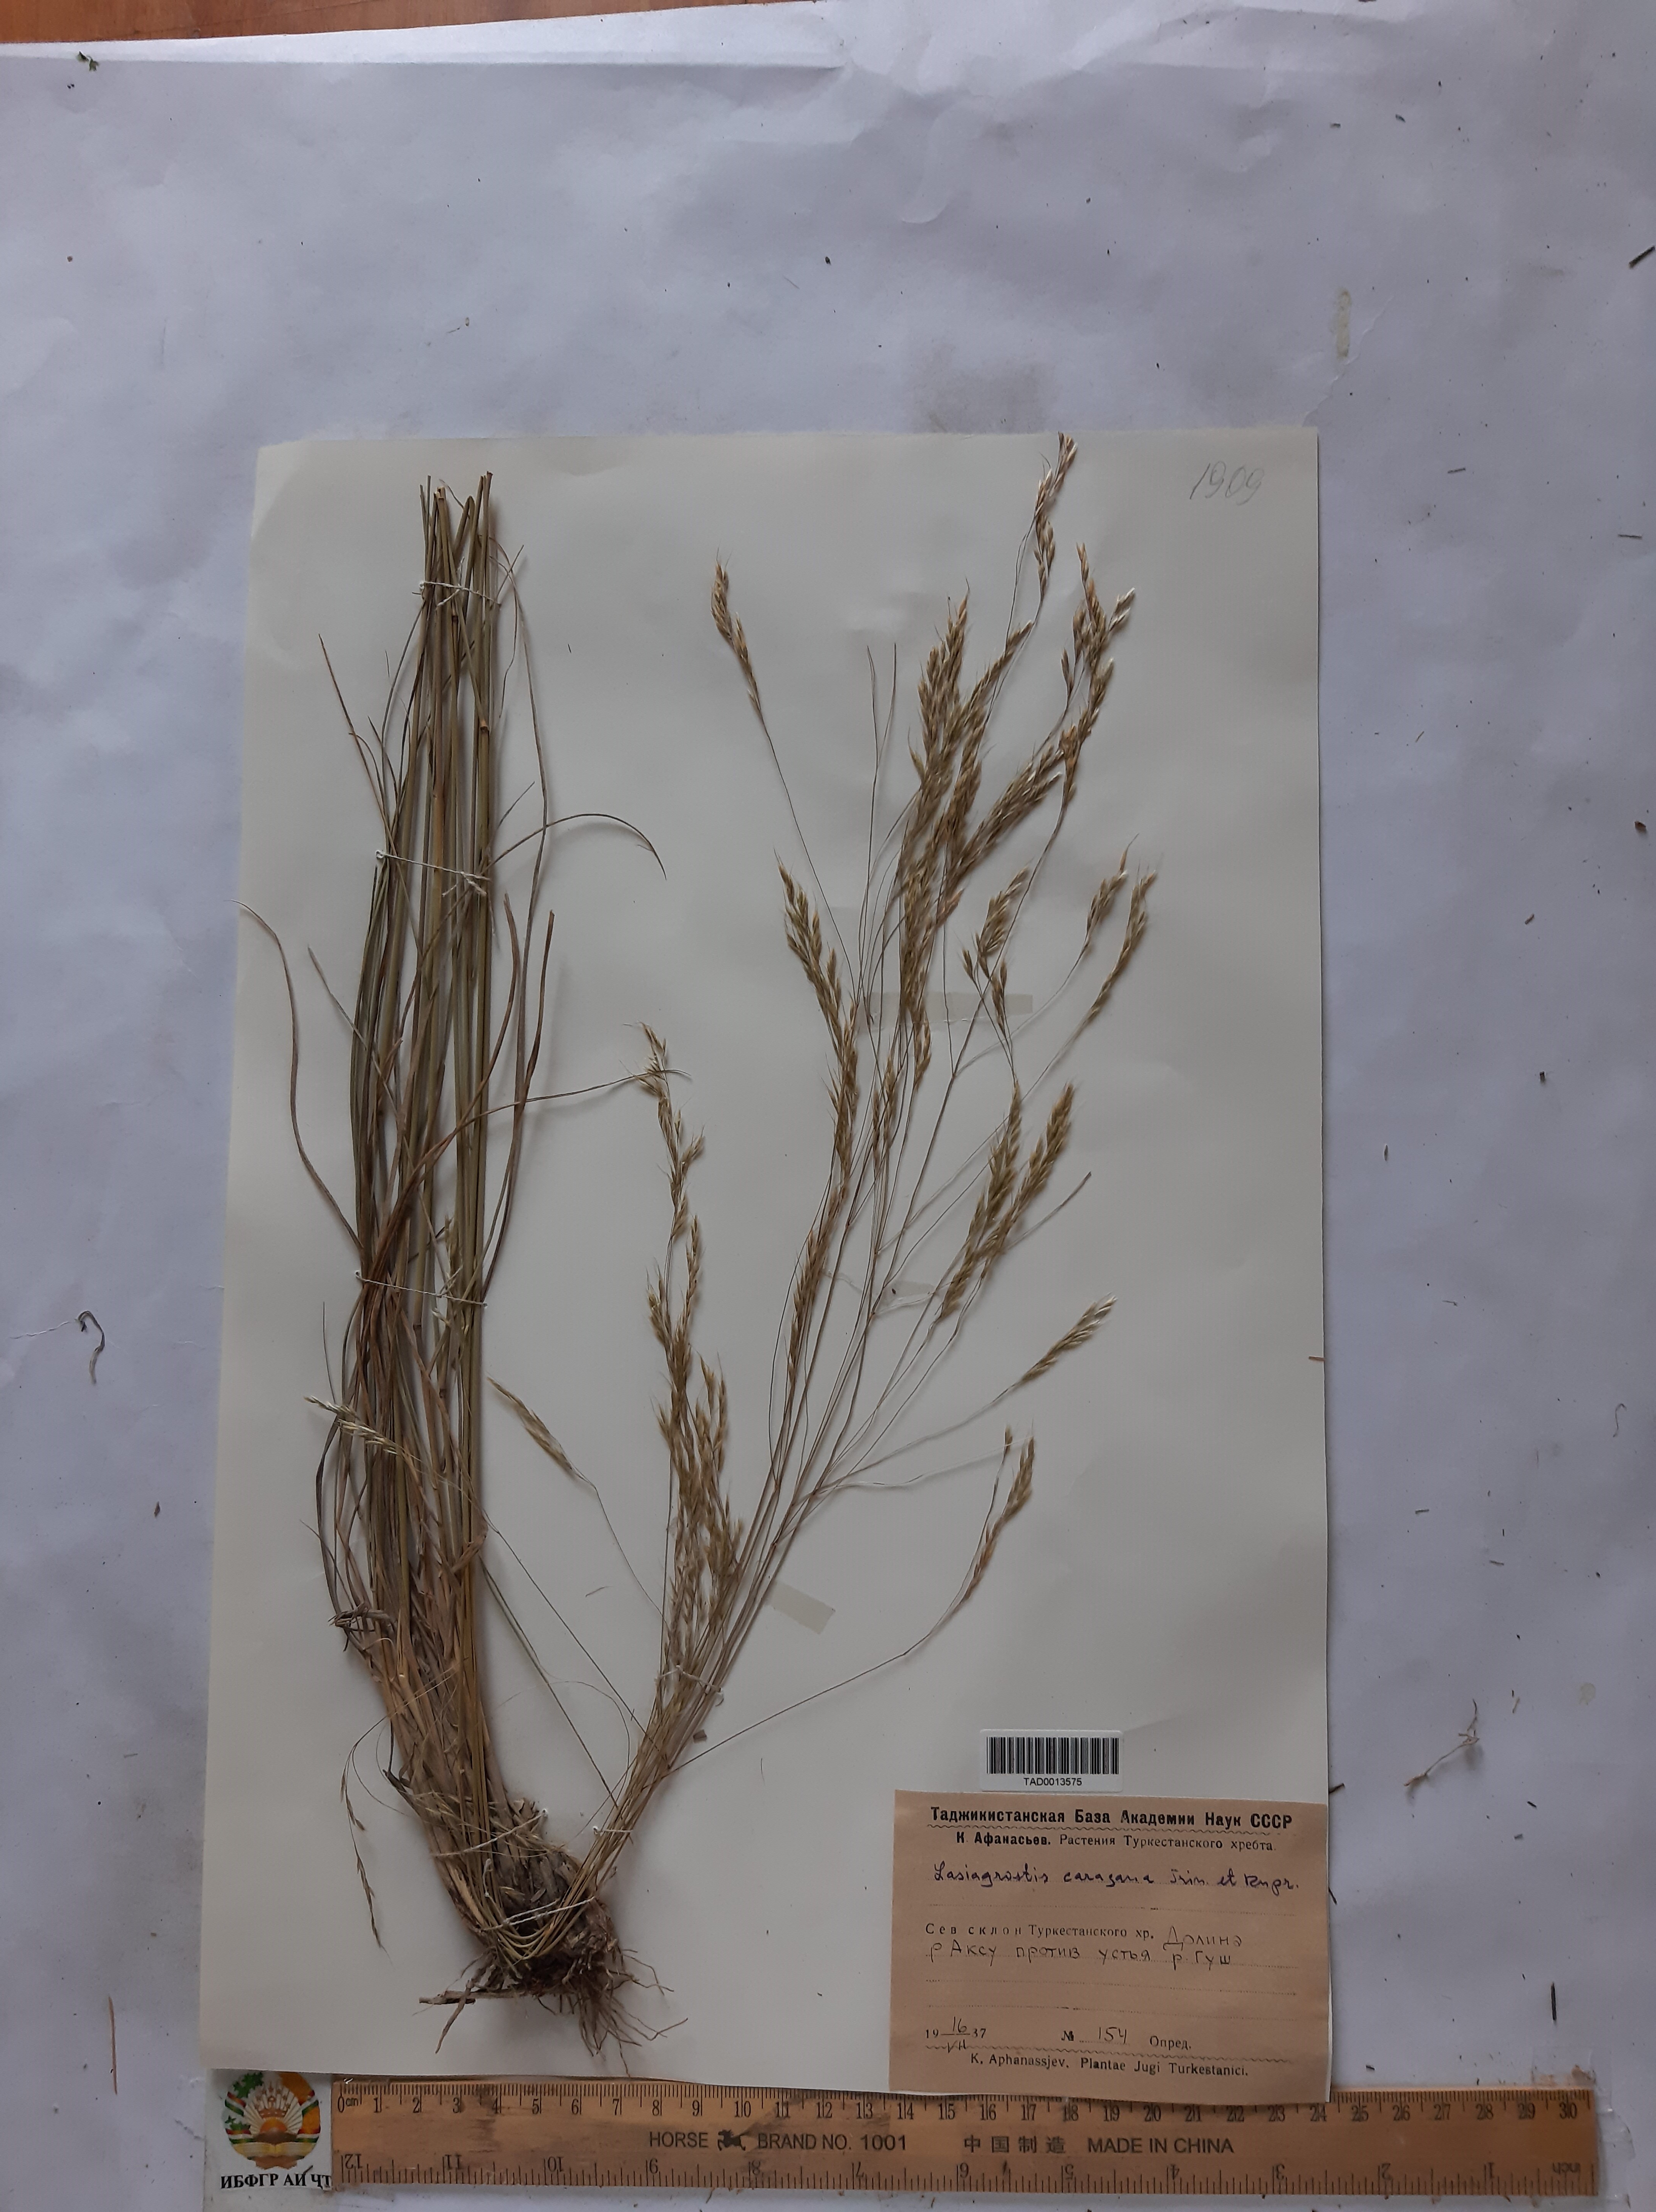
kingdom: Plantae
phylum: Tracheophyta
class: Liliopsida
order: Poales
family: Poaceae
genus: Stipa
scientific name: Stipa conferta
